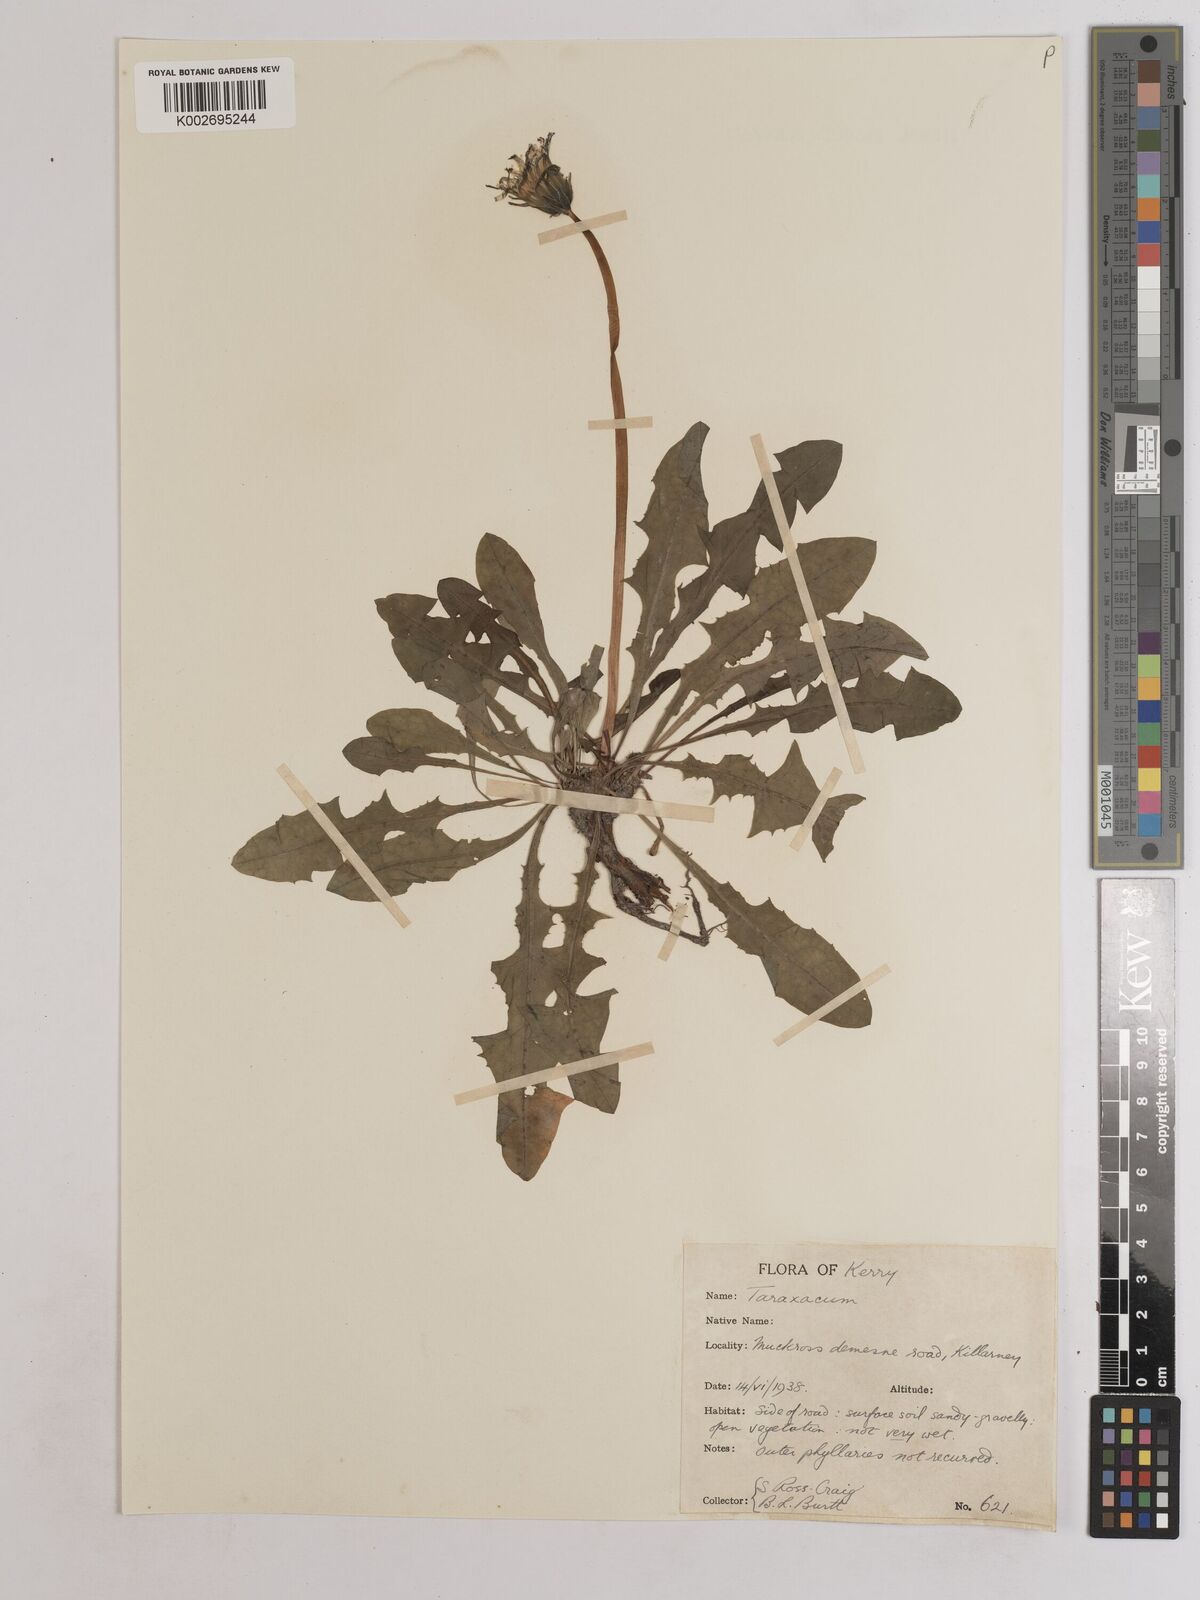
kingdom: Plantae
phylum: Tracheophyta
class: Magnoliopsida
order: Asterales
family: Asteraceae
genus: Taraxacum
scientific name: Taraxacum
